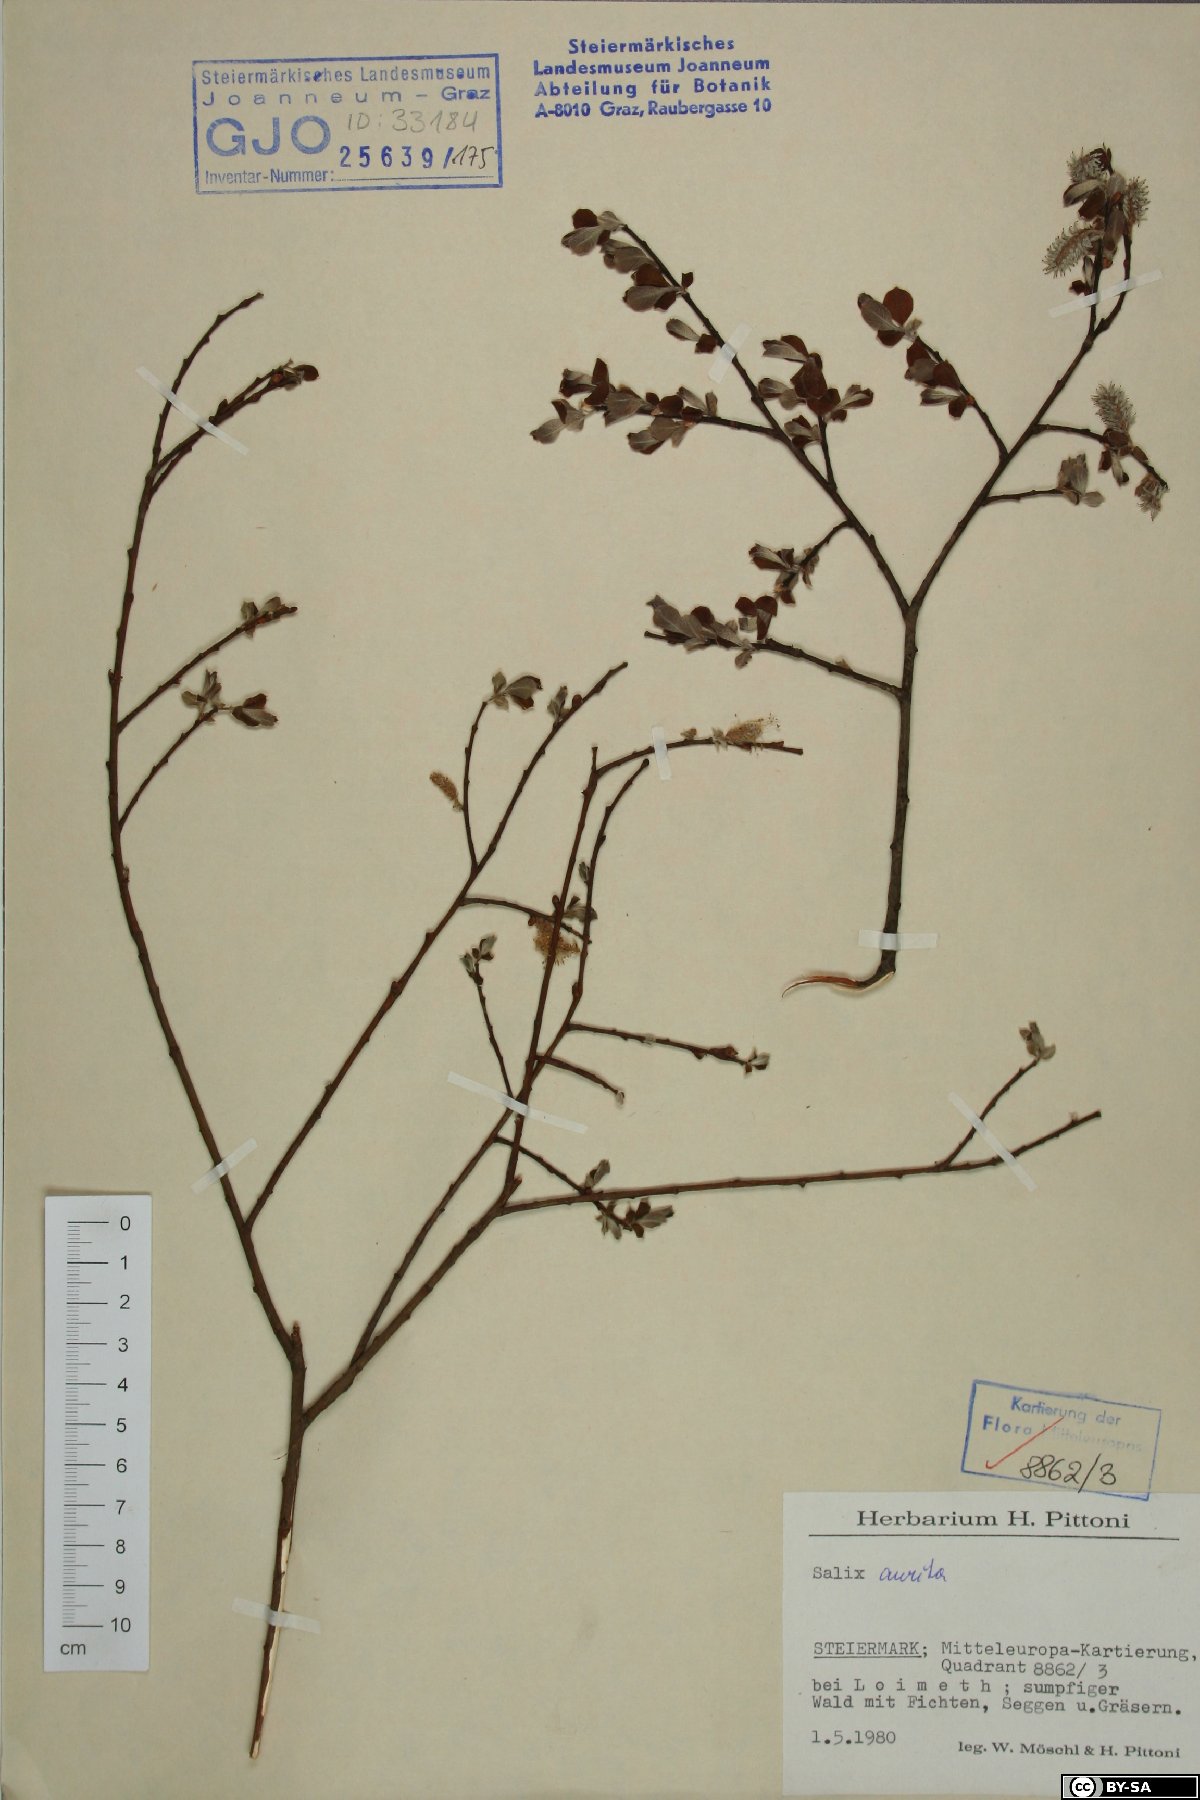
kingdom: Plantae
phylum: Tracheophyta
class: Magnoliopsida
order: Malpighiales
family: Salicaceae
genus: Salix
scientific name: Salix aurita
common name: Eared willow
